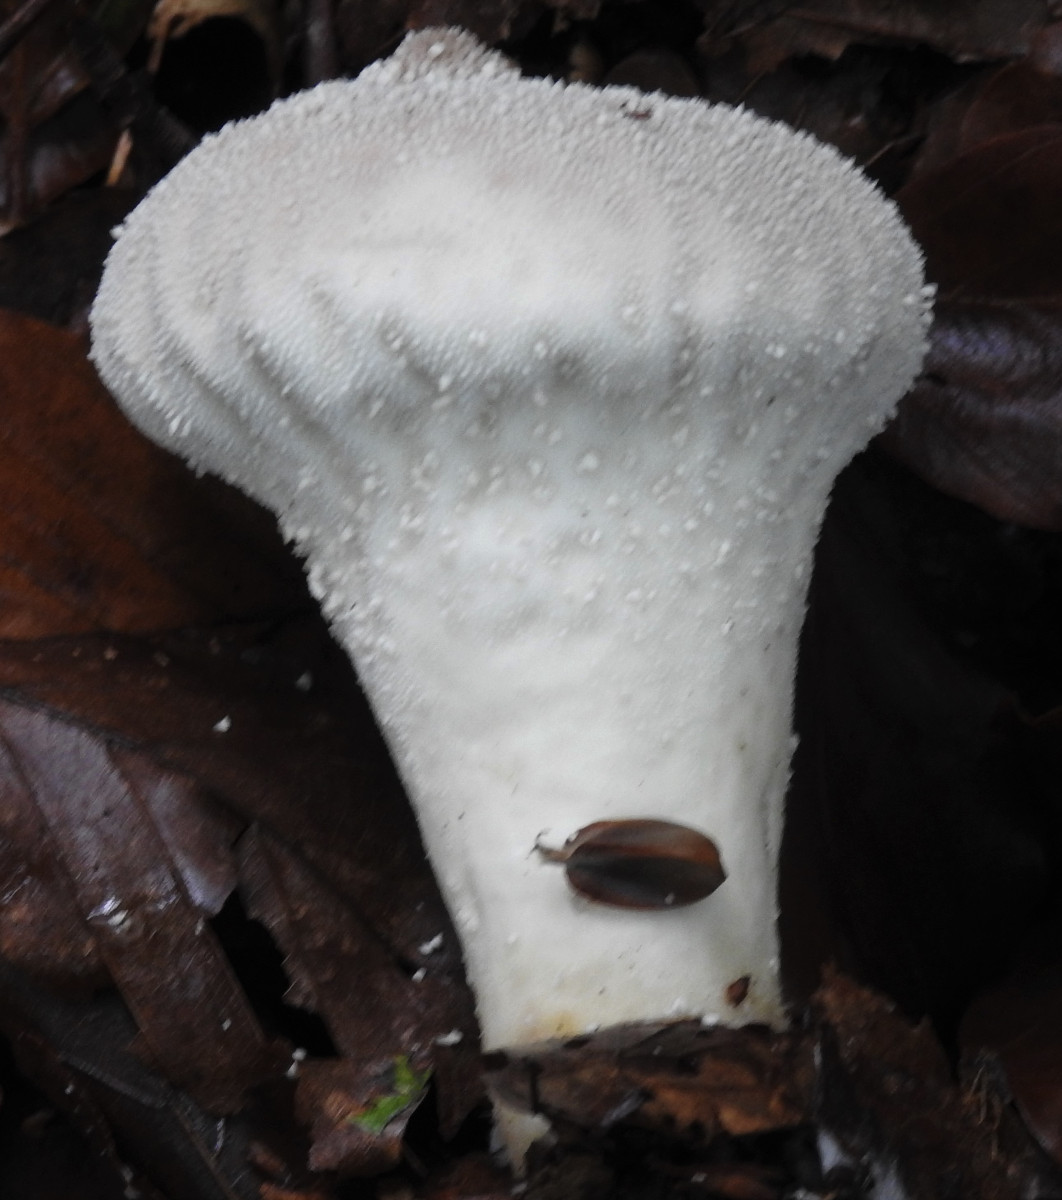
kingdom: Fungi
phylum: Basidiomycota
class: Agaricomycetes
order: Agaricales
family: Lycoperdaceae
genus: Lycoperdon
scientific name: Lycoperdon perlatum
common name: krystal-støvbold
